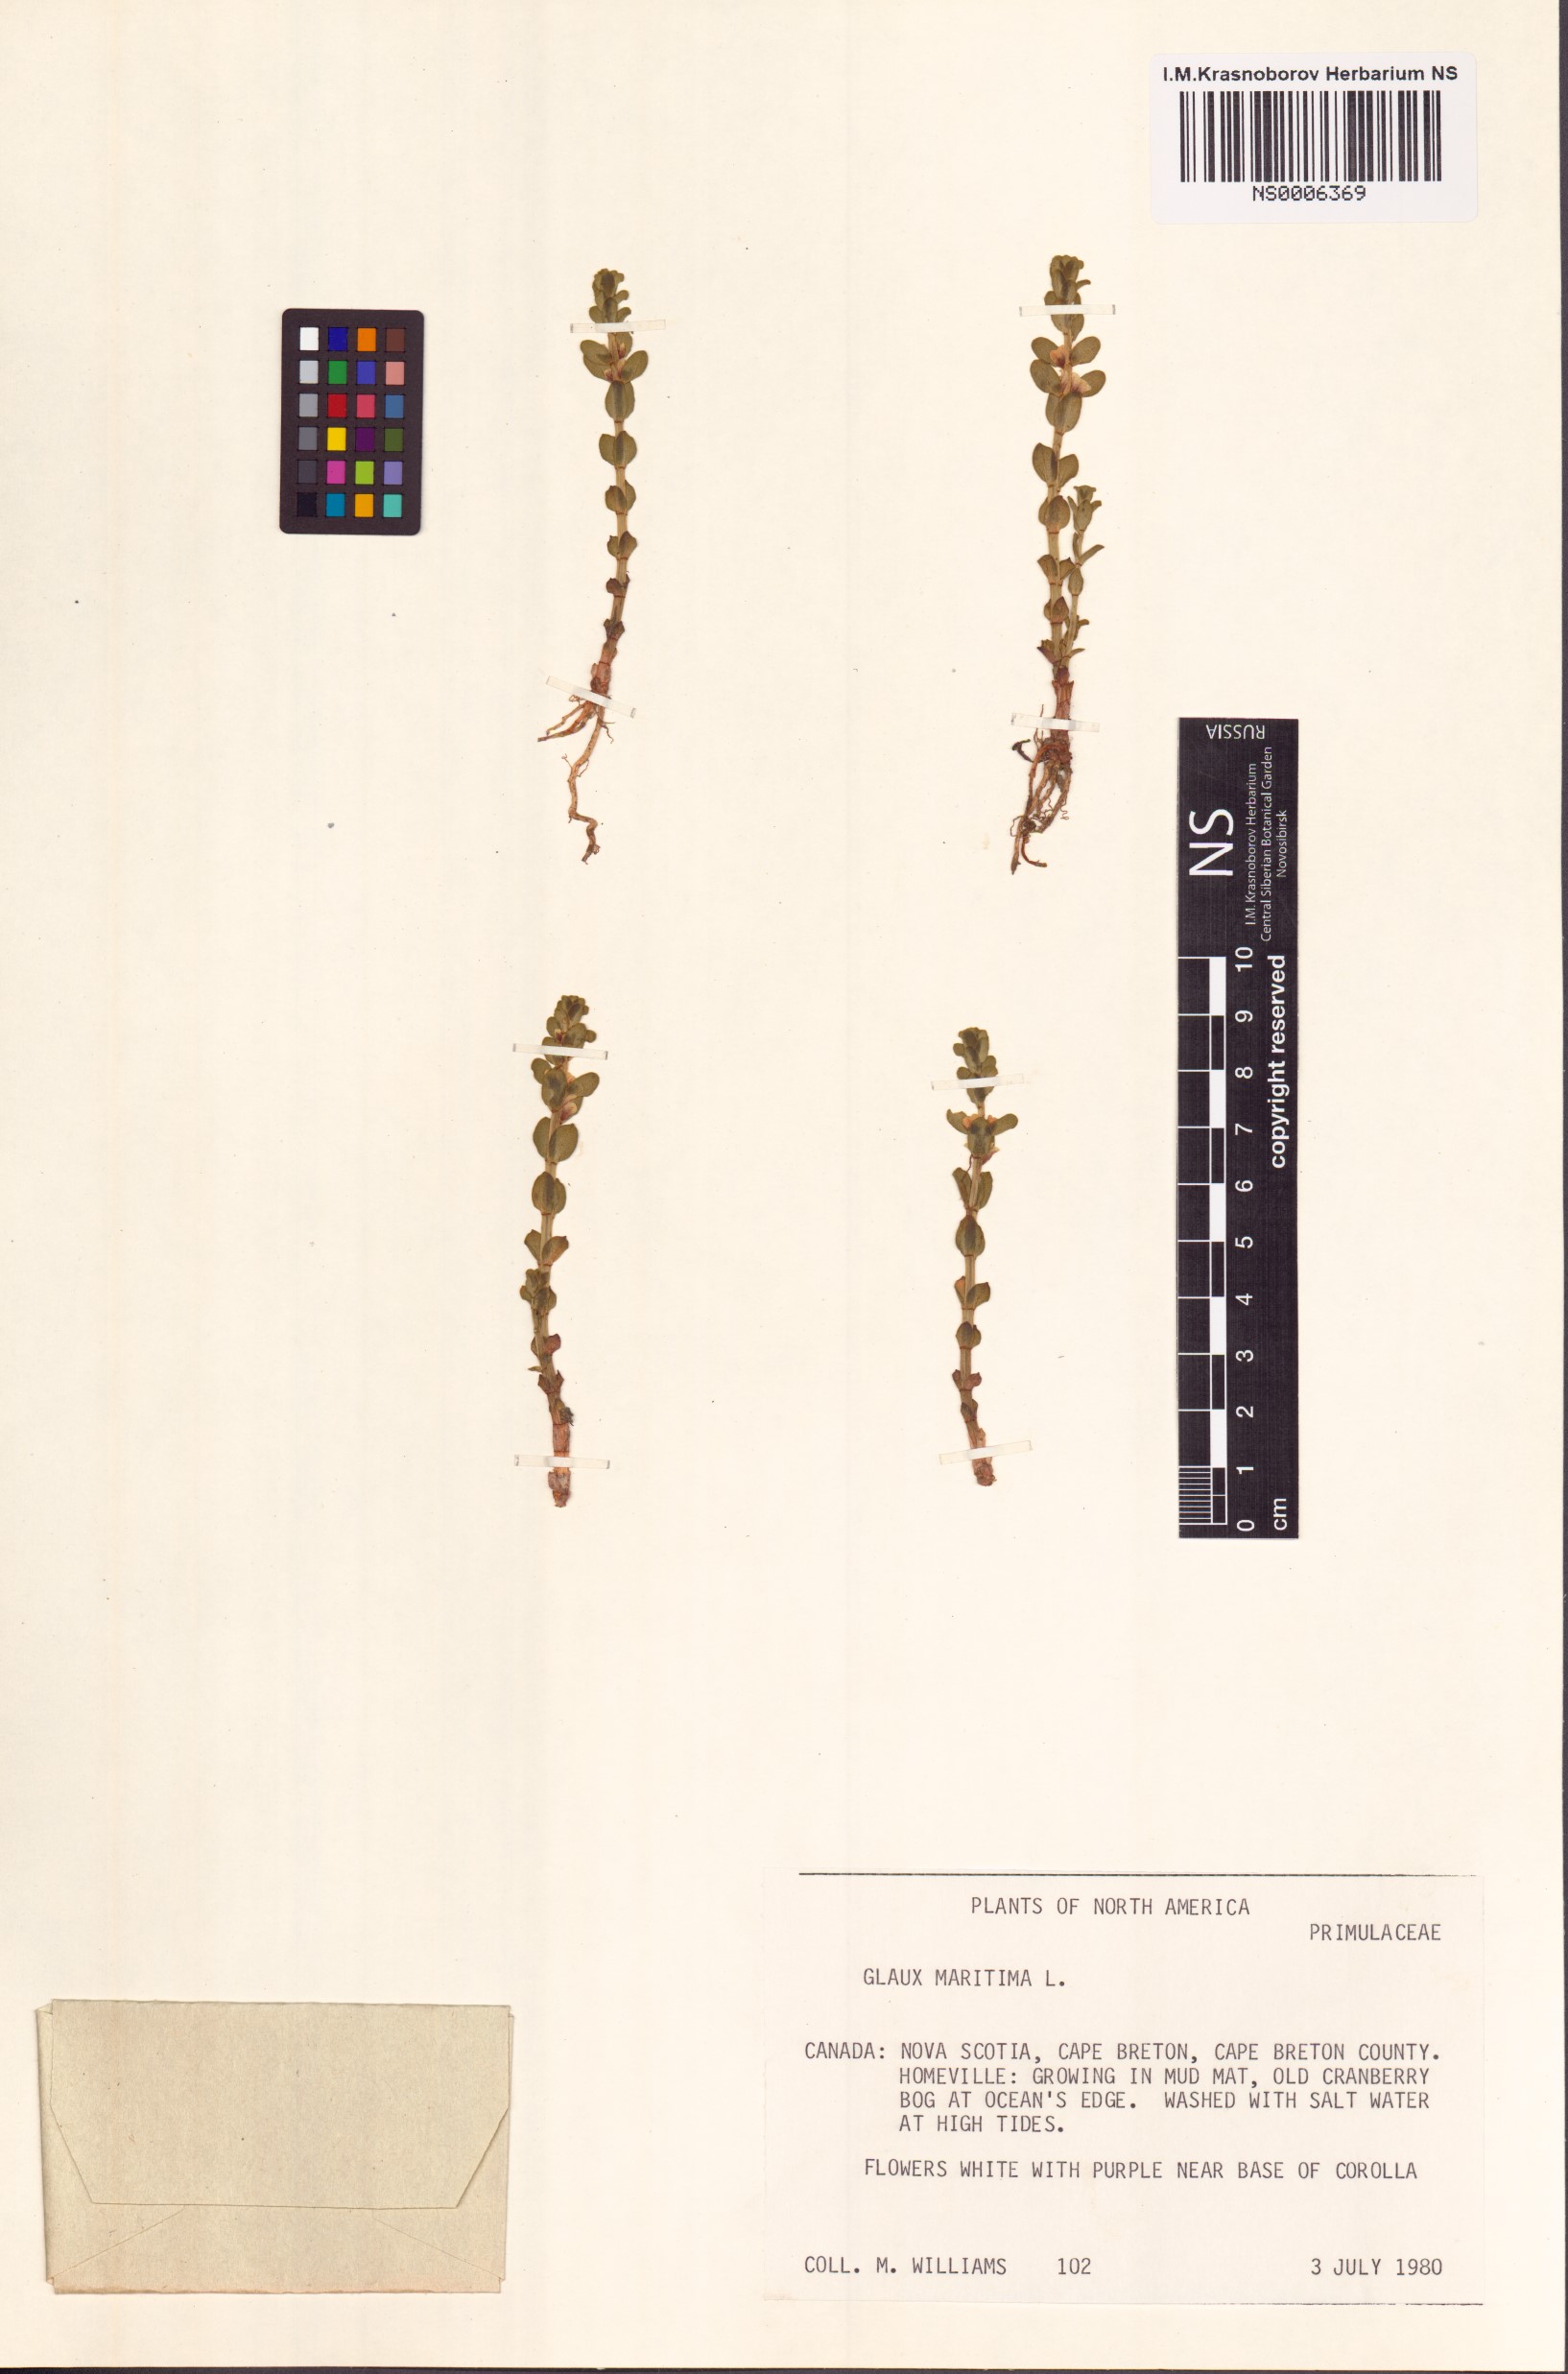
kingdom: Plantae
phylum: Tracheophyta
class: Magnoliopsida
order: Ericales
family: Primulaceae
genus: Lysimachia
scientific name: Lysimachia maritima
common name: Sea milkwort
